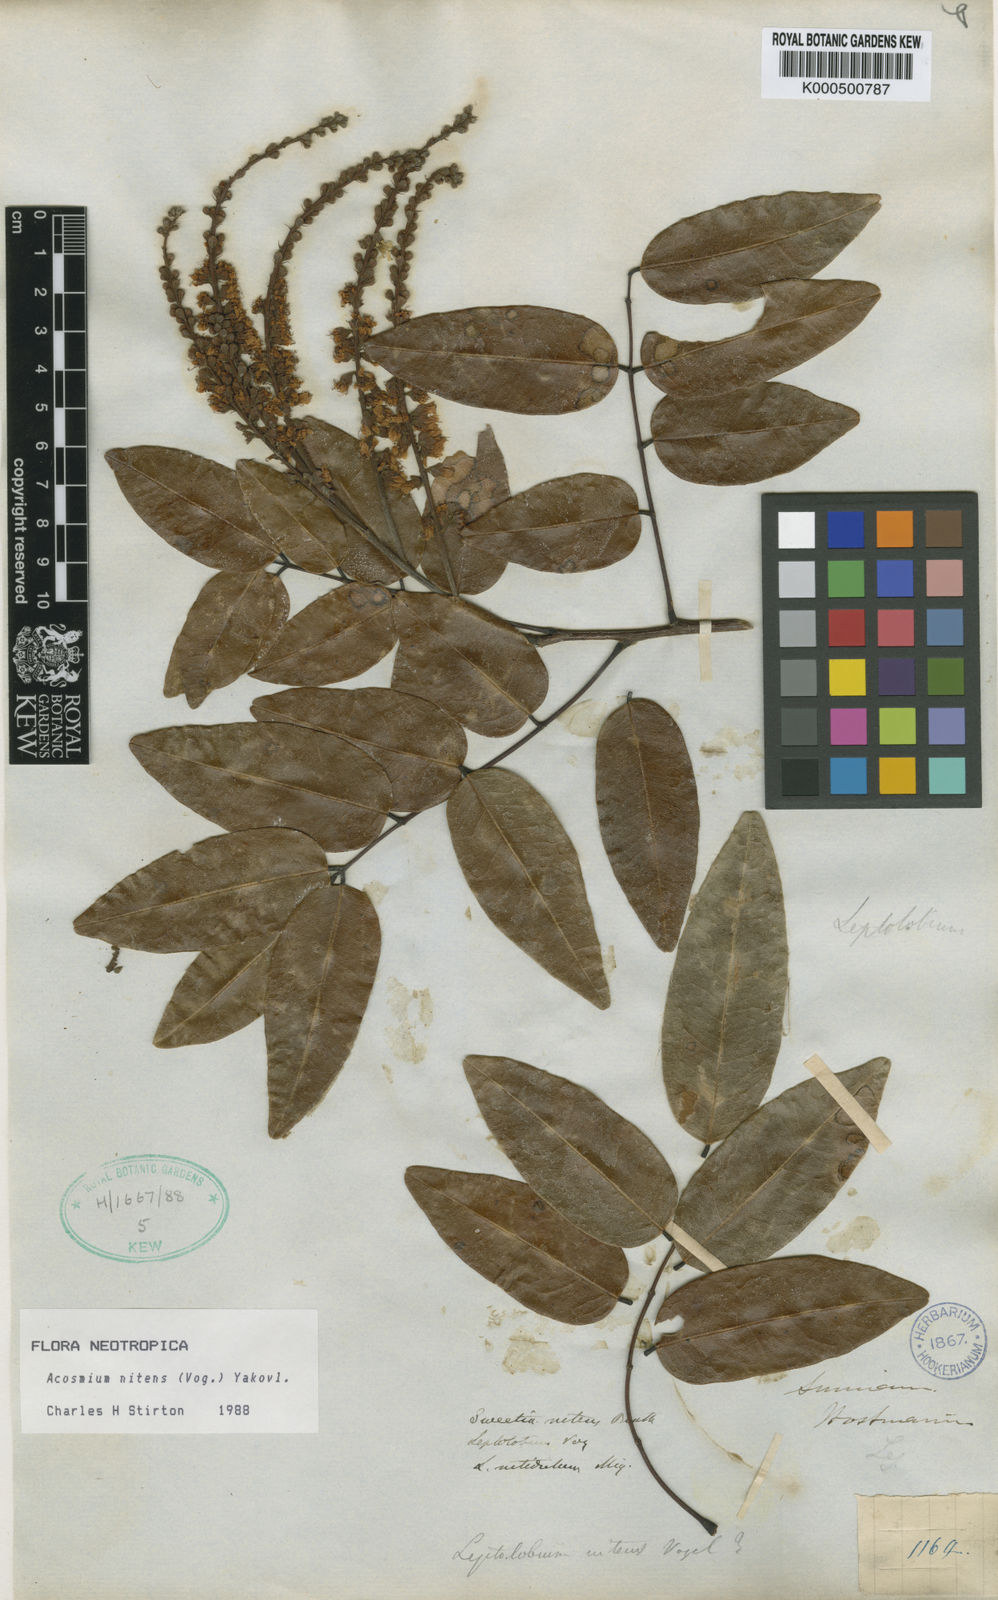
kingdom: Plantae
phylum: Tracheophyta
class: Magnoliopsida
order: Fabales
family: Fabaceae
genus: Leptolobium
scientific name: Leptolobium nitens
